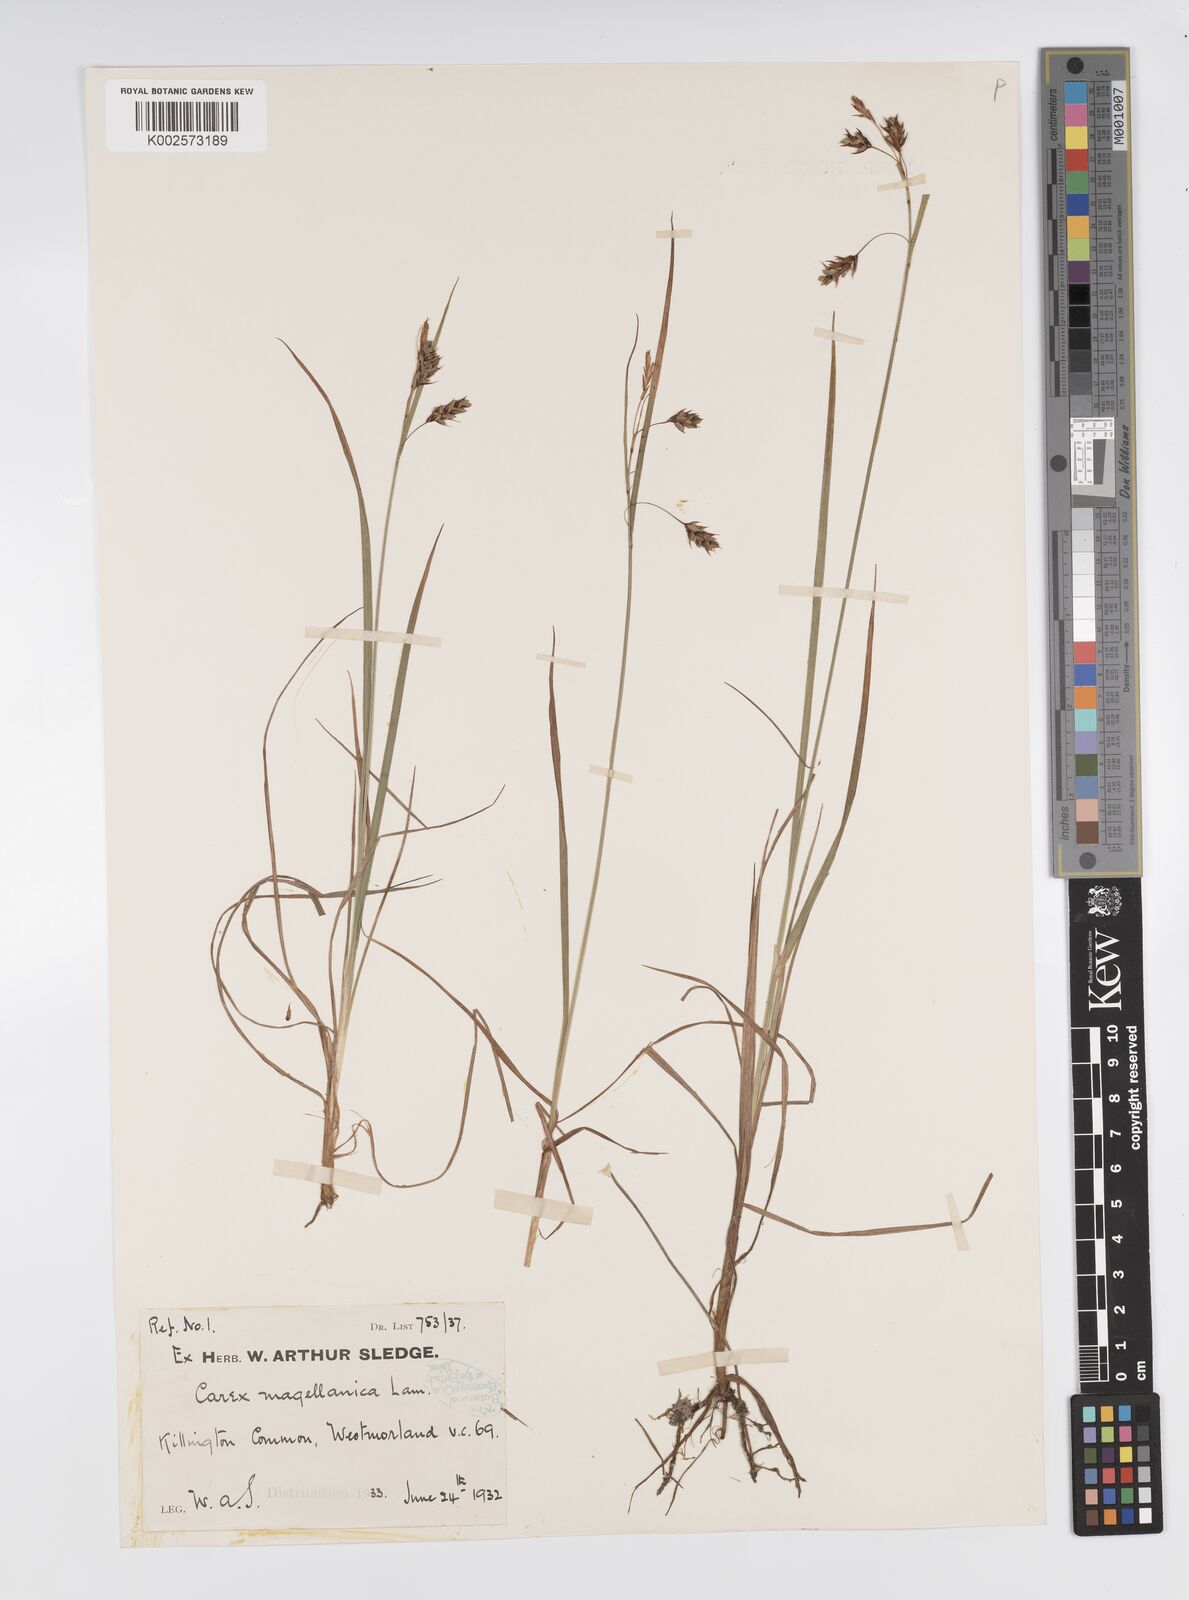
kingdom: Plantae
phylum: Tracheophyta
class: Liliopsida
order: Poales
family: Cyperaceae
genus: Carex
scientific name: Carex magellanica
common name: Bog sedge
